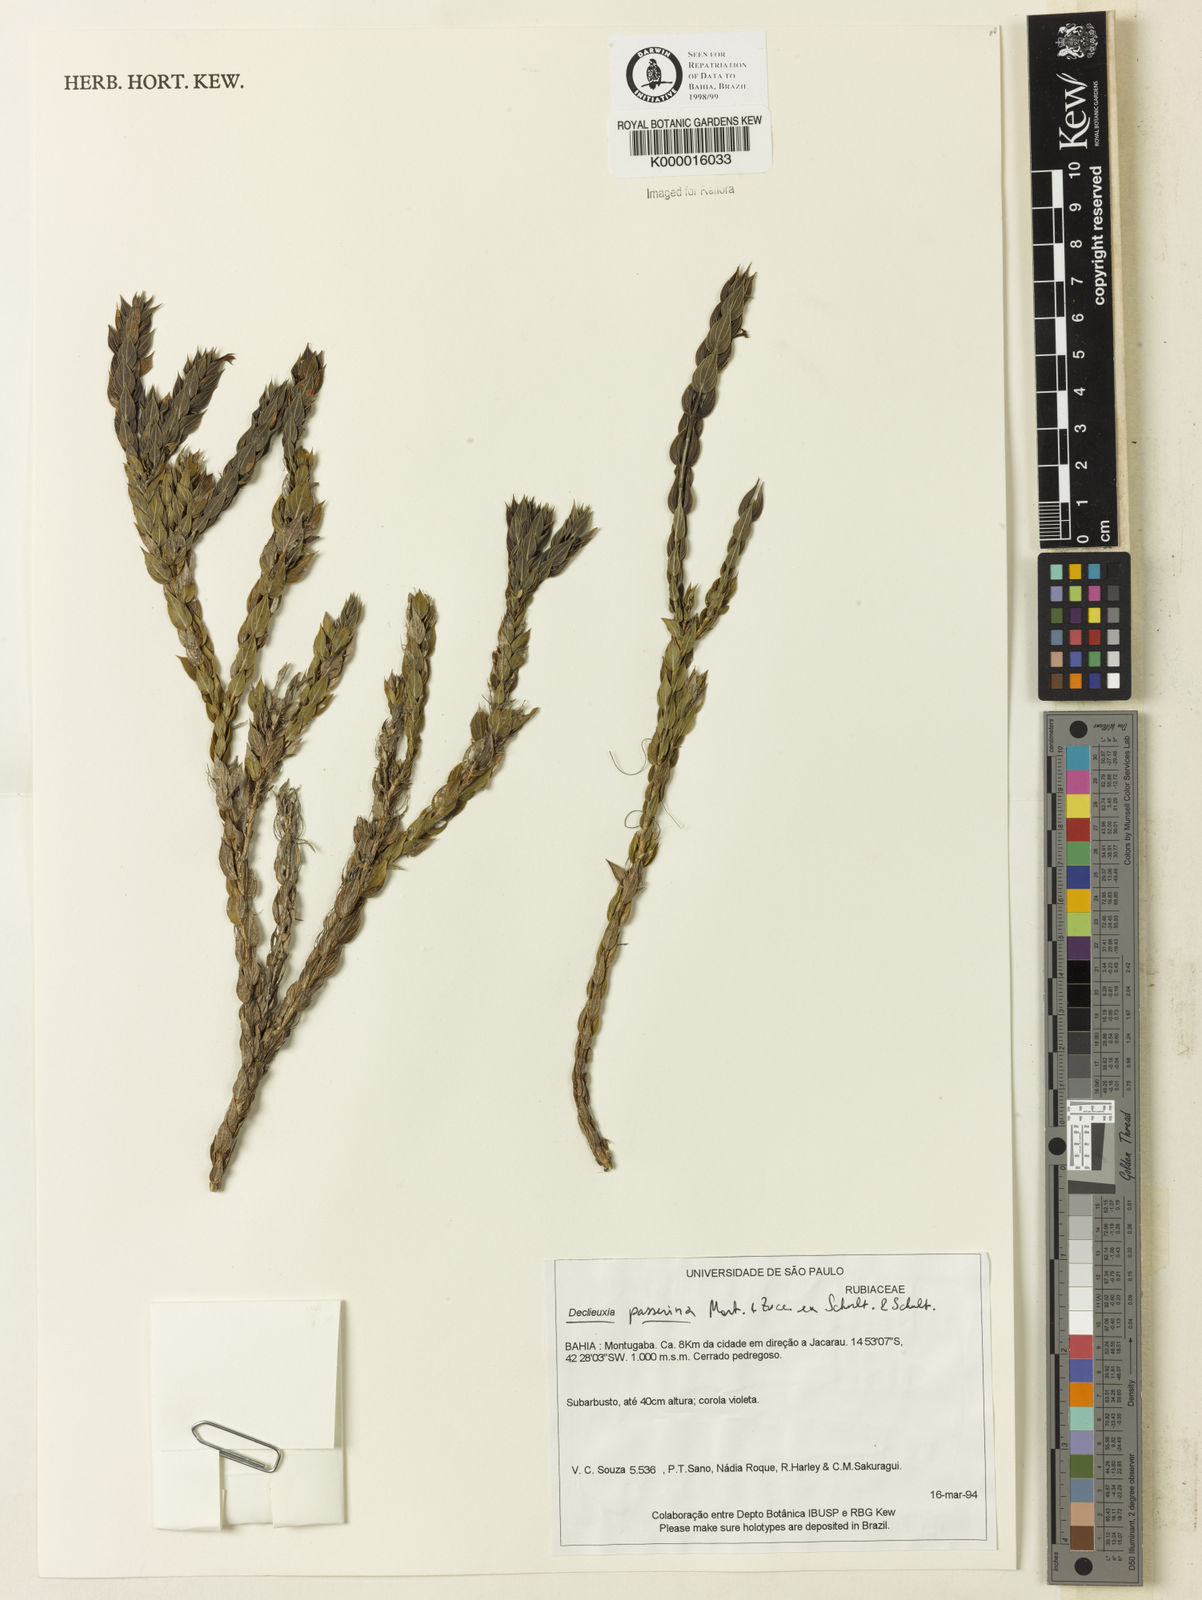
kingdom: Plantae
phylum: Tracheophyta
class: Magnoliopsida
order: Gentianales
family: Rubiaceae
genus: Declieuxia
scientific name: Declieuxia
